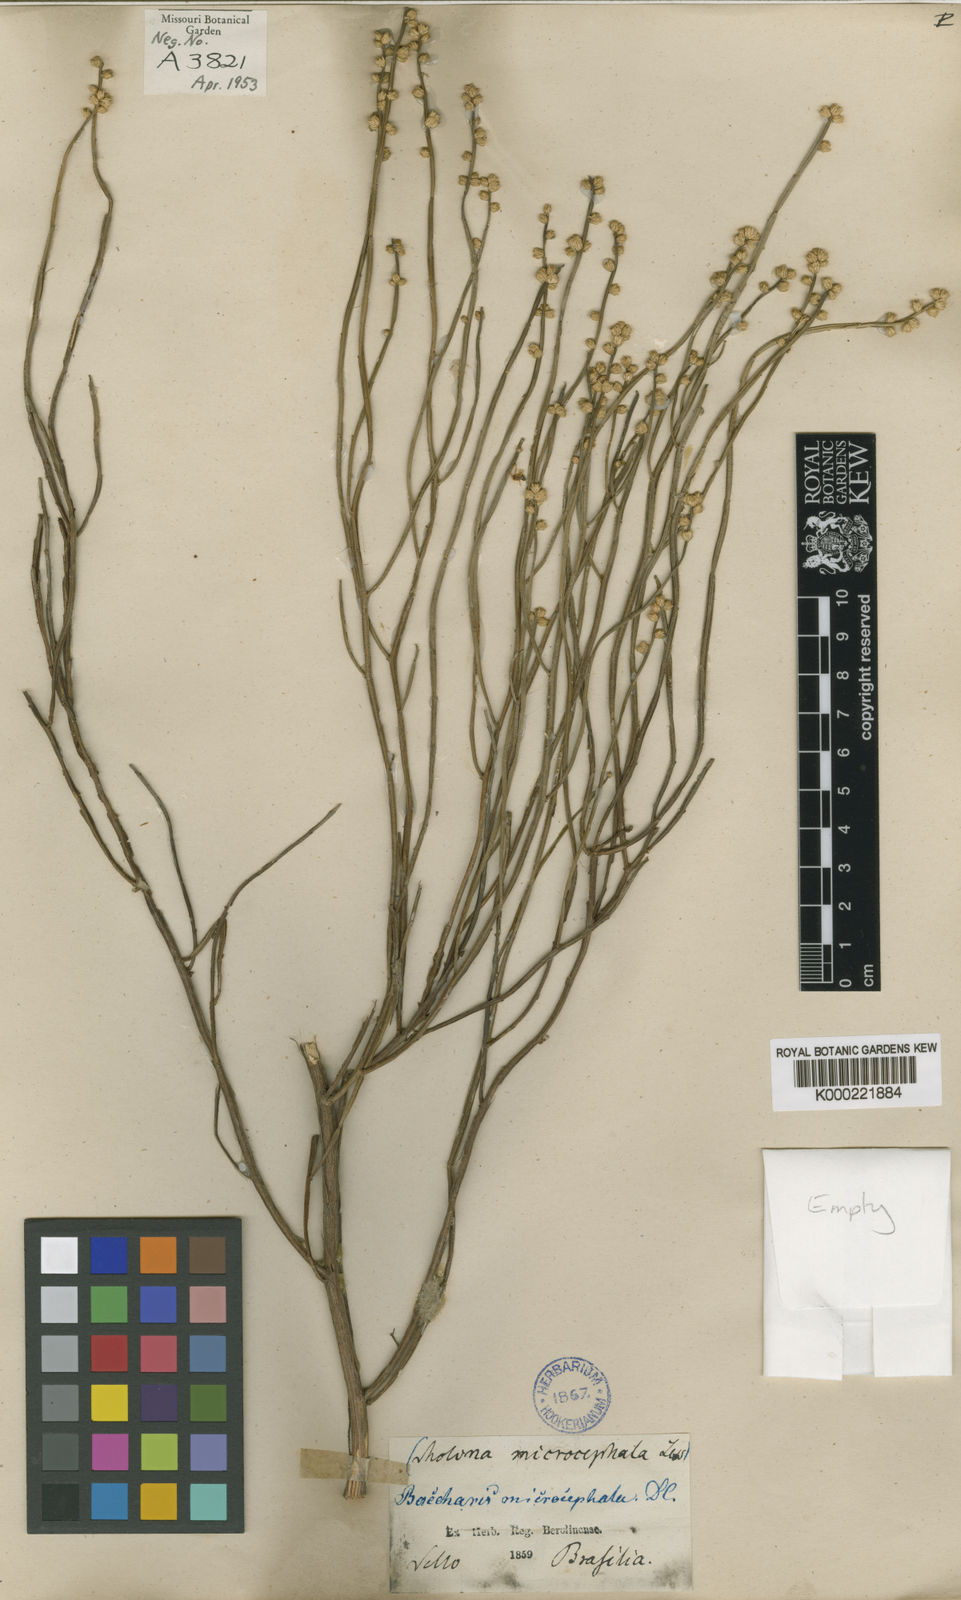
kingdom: Plantae
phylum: Tracheophyta
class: Magnoliopsida
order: Asterales
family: Asteraceae
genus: Baccharis
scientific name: Baccharis microcephala
